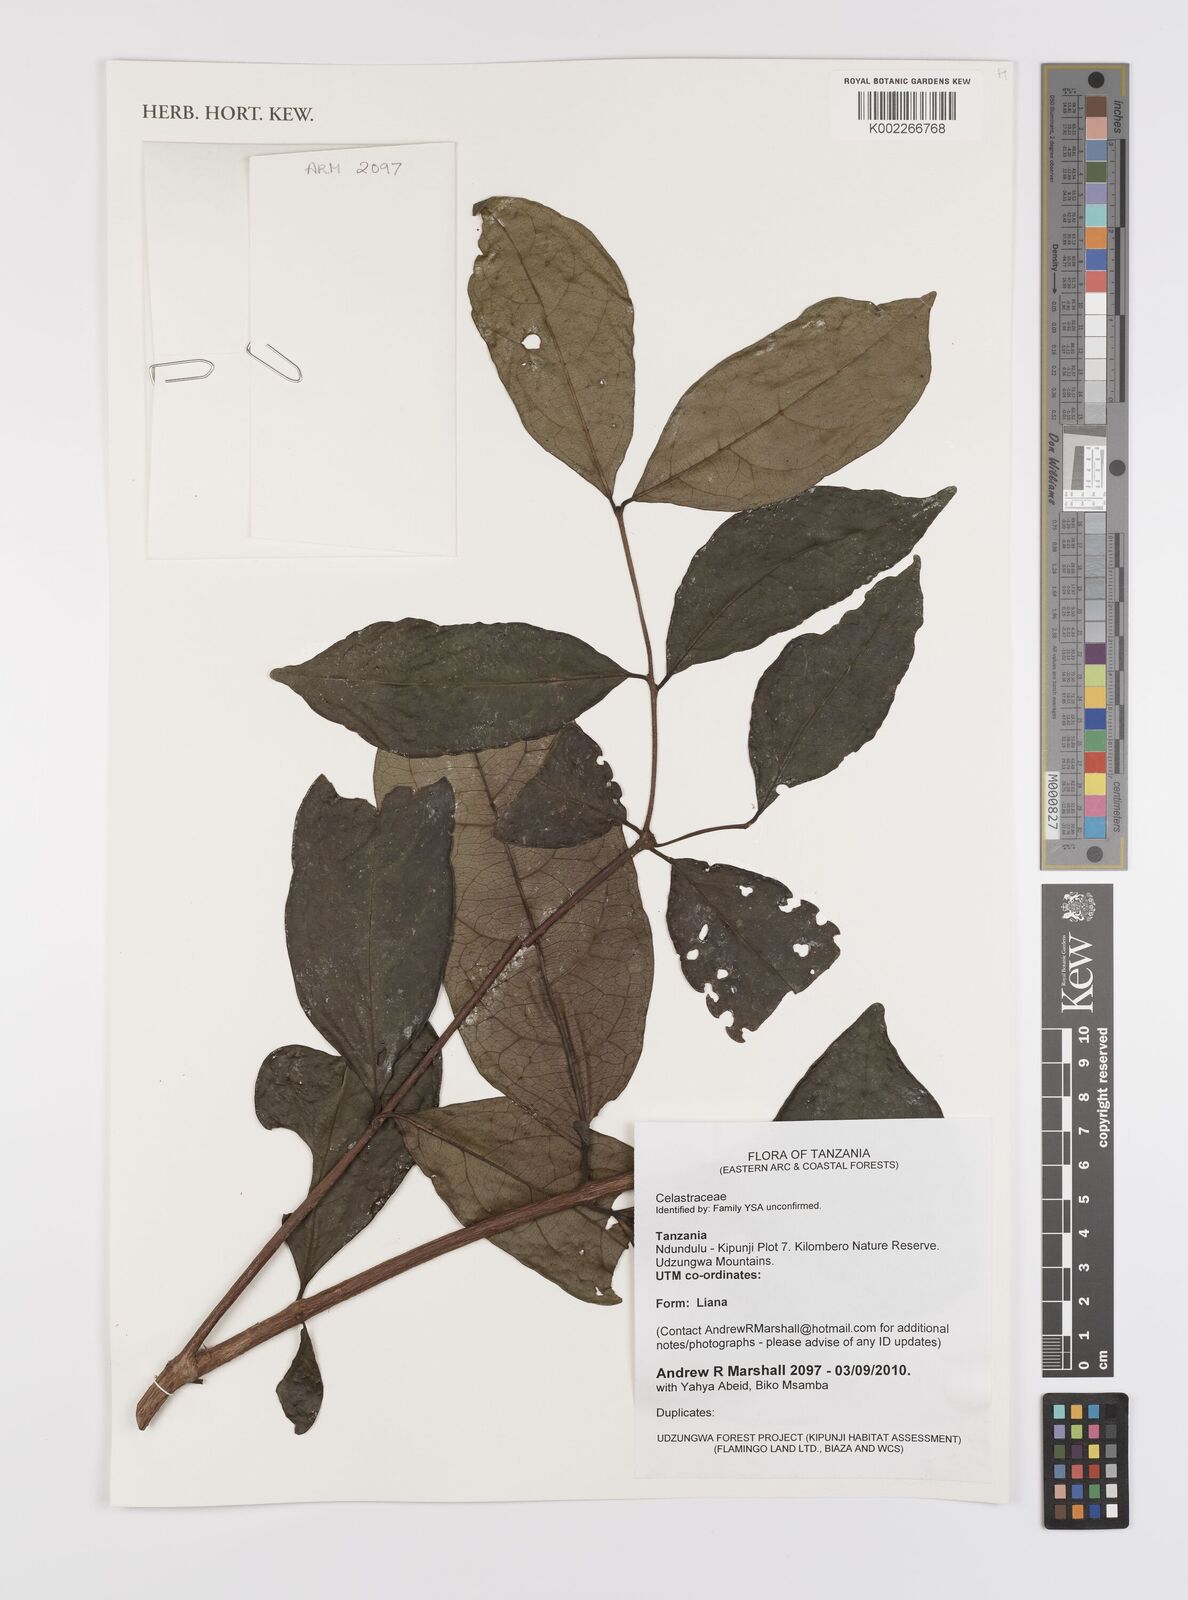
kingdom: Plantae
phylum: Tracheophyta
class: Magnoliopsida
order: Celastrales
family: Celastraceae
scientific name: Celastraceae
